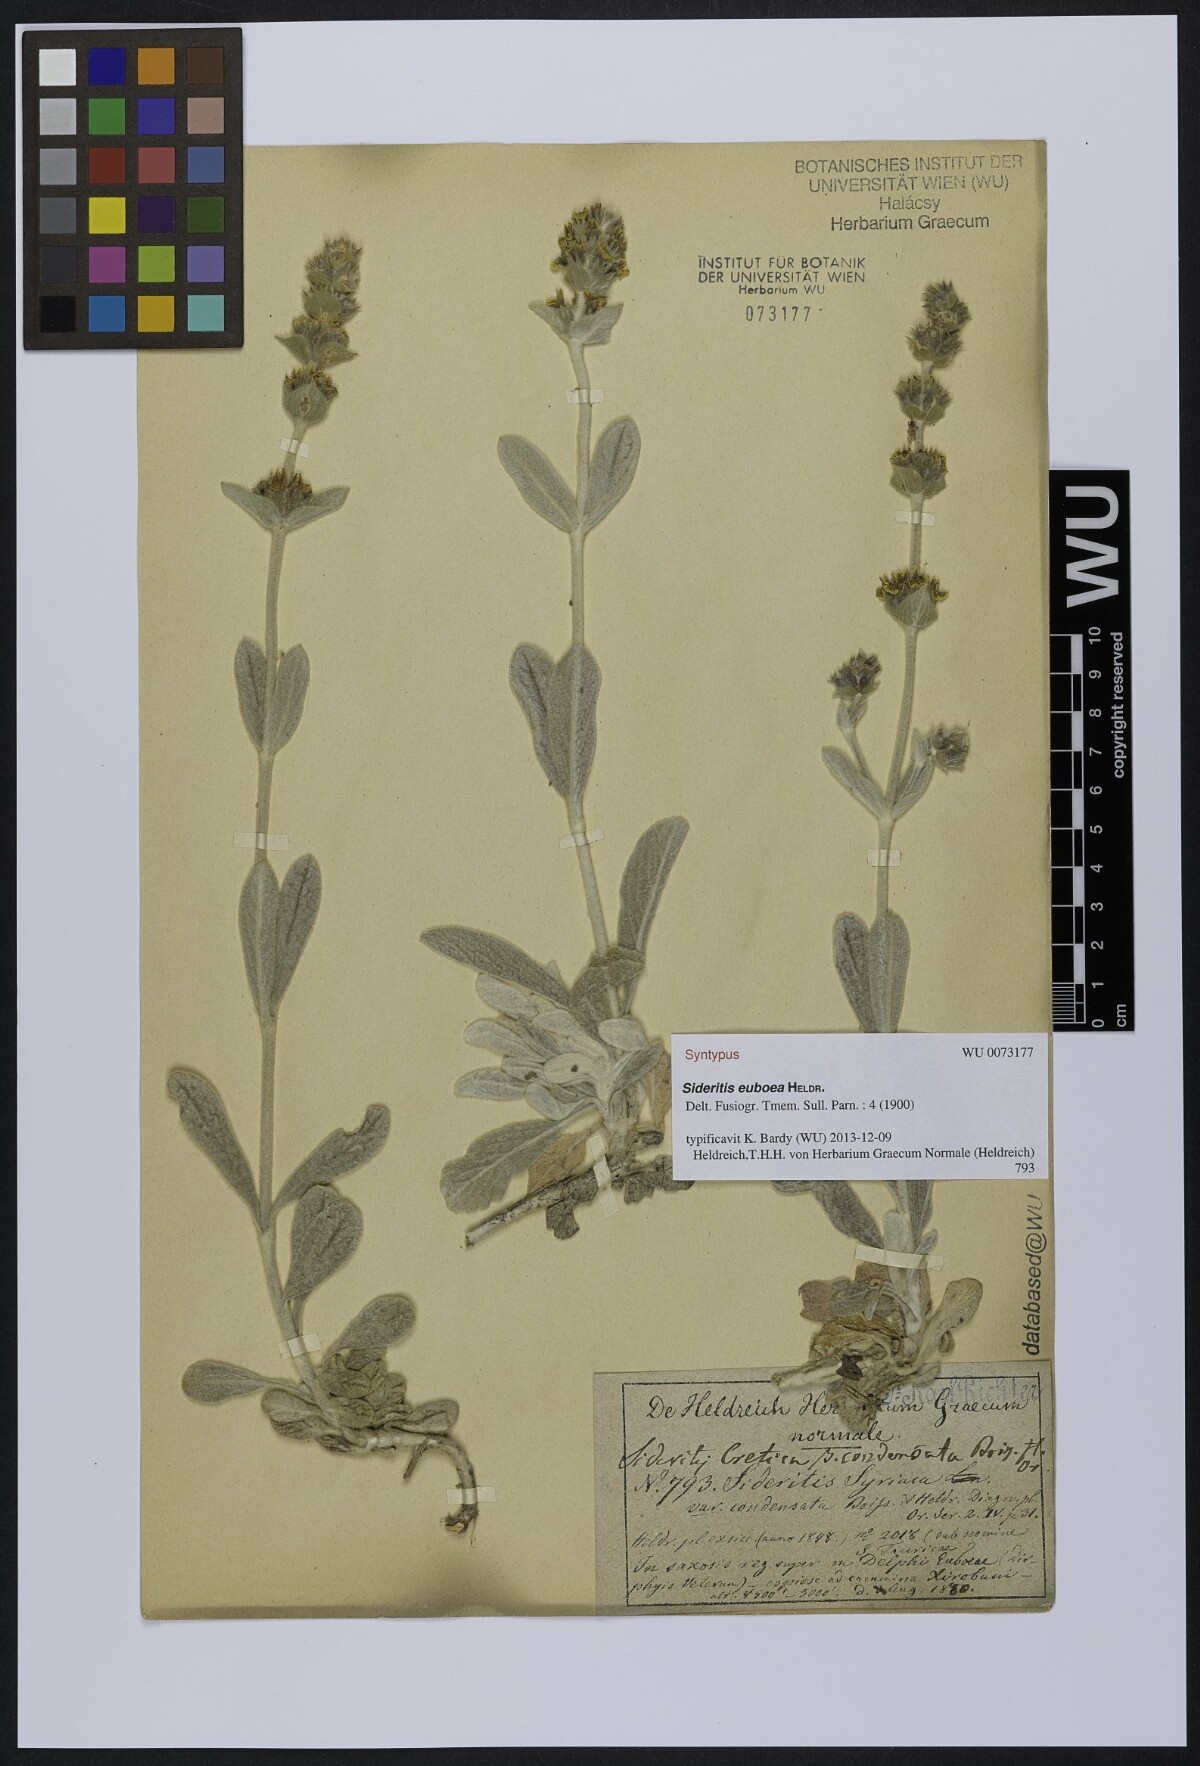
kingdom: Plantae
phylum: Tracheophyta
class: Magnoliopsida
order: Lamiales
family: Lamiaceae
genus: Sideritis
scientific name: Sideritis euboea
